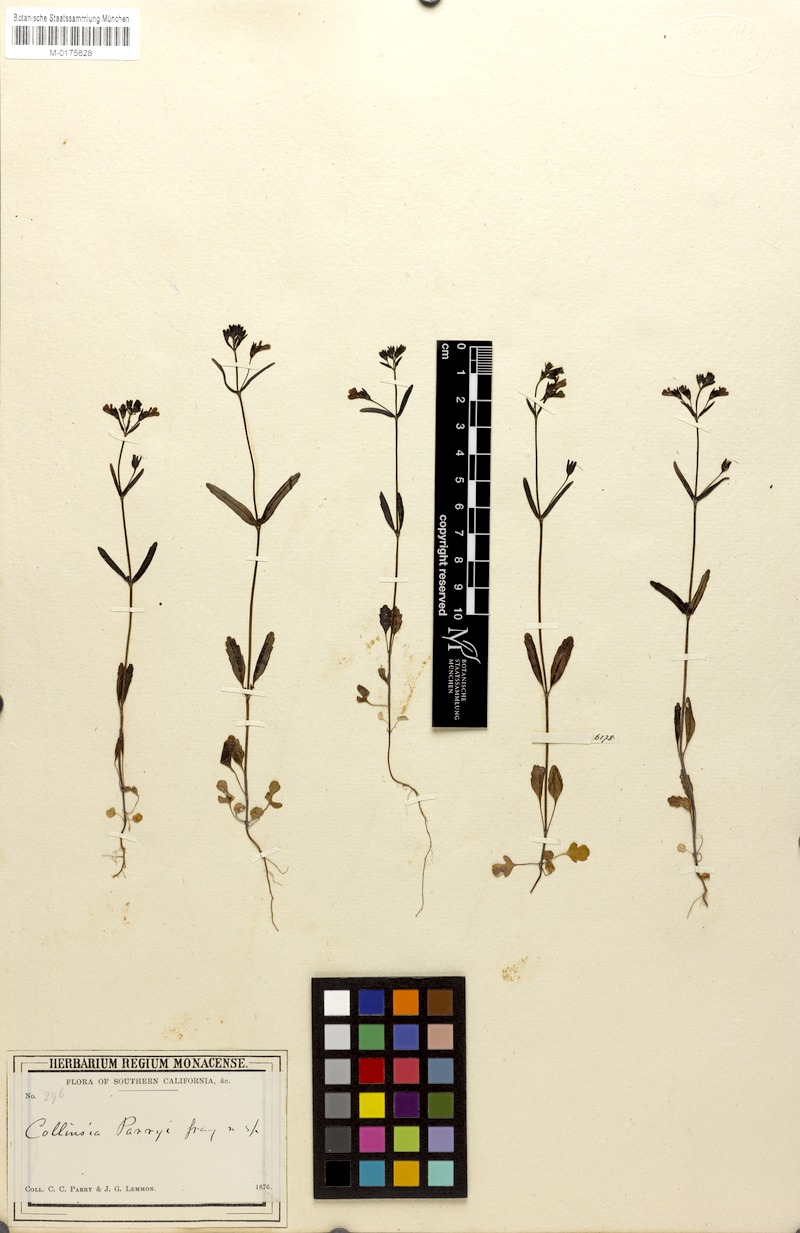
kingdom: Plantae
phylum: Tracheophyta
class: Magnoliopsida
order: Lamiales
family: Plantaginaceae
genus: Collinsia
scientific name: Collinsia parryi
